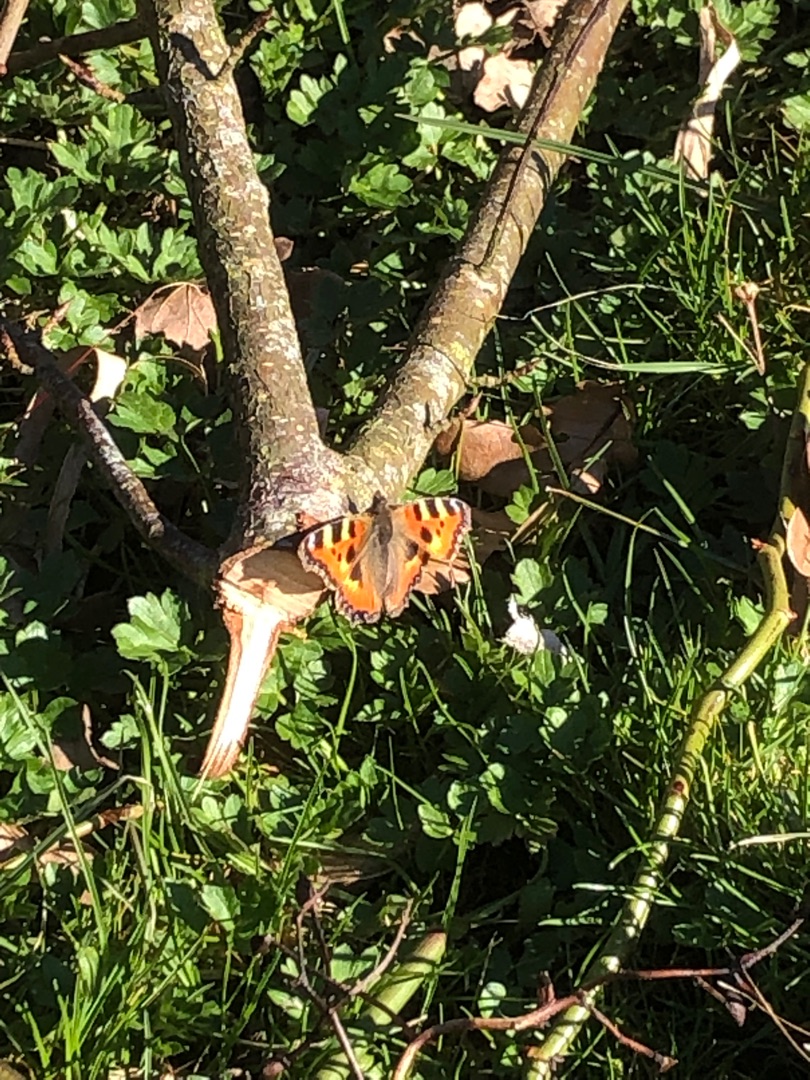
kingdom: Animalia
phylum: Arthropoda
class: Insecta
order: Lepidoptera
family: Nymphalidae
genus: Aglais
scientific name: Aglais urticae
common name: Nældens takvinge
